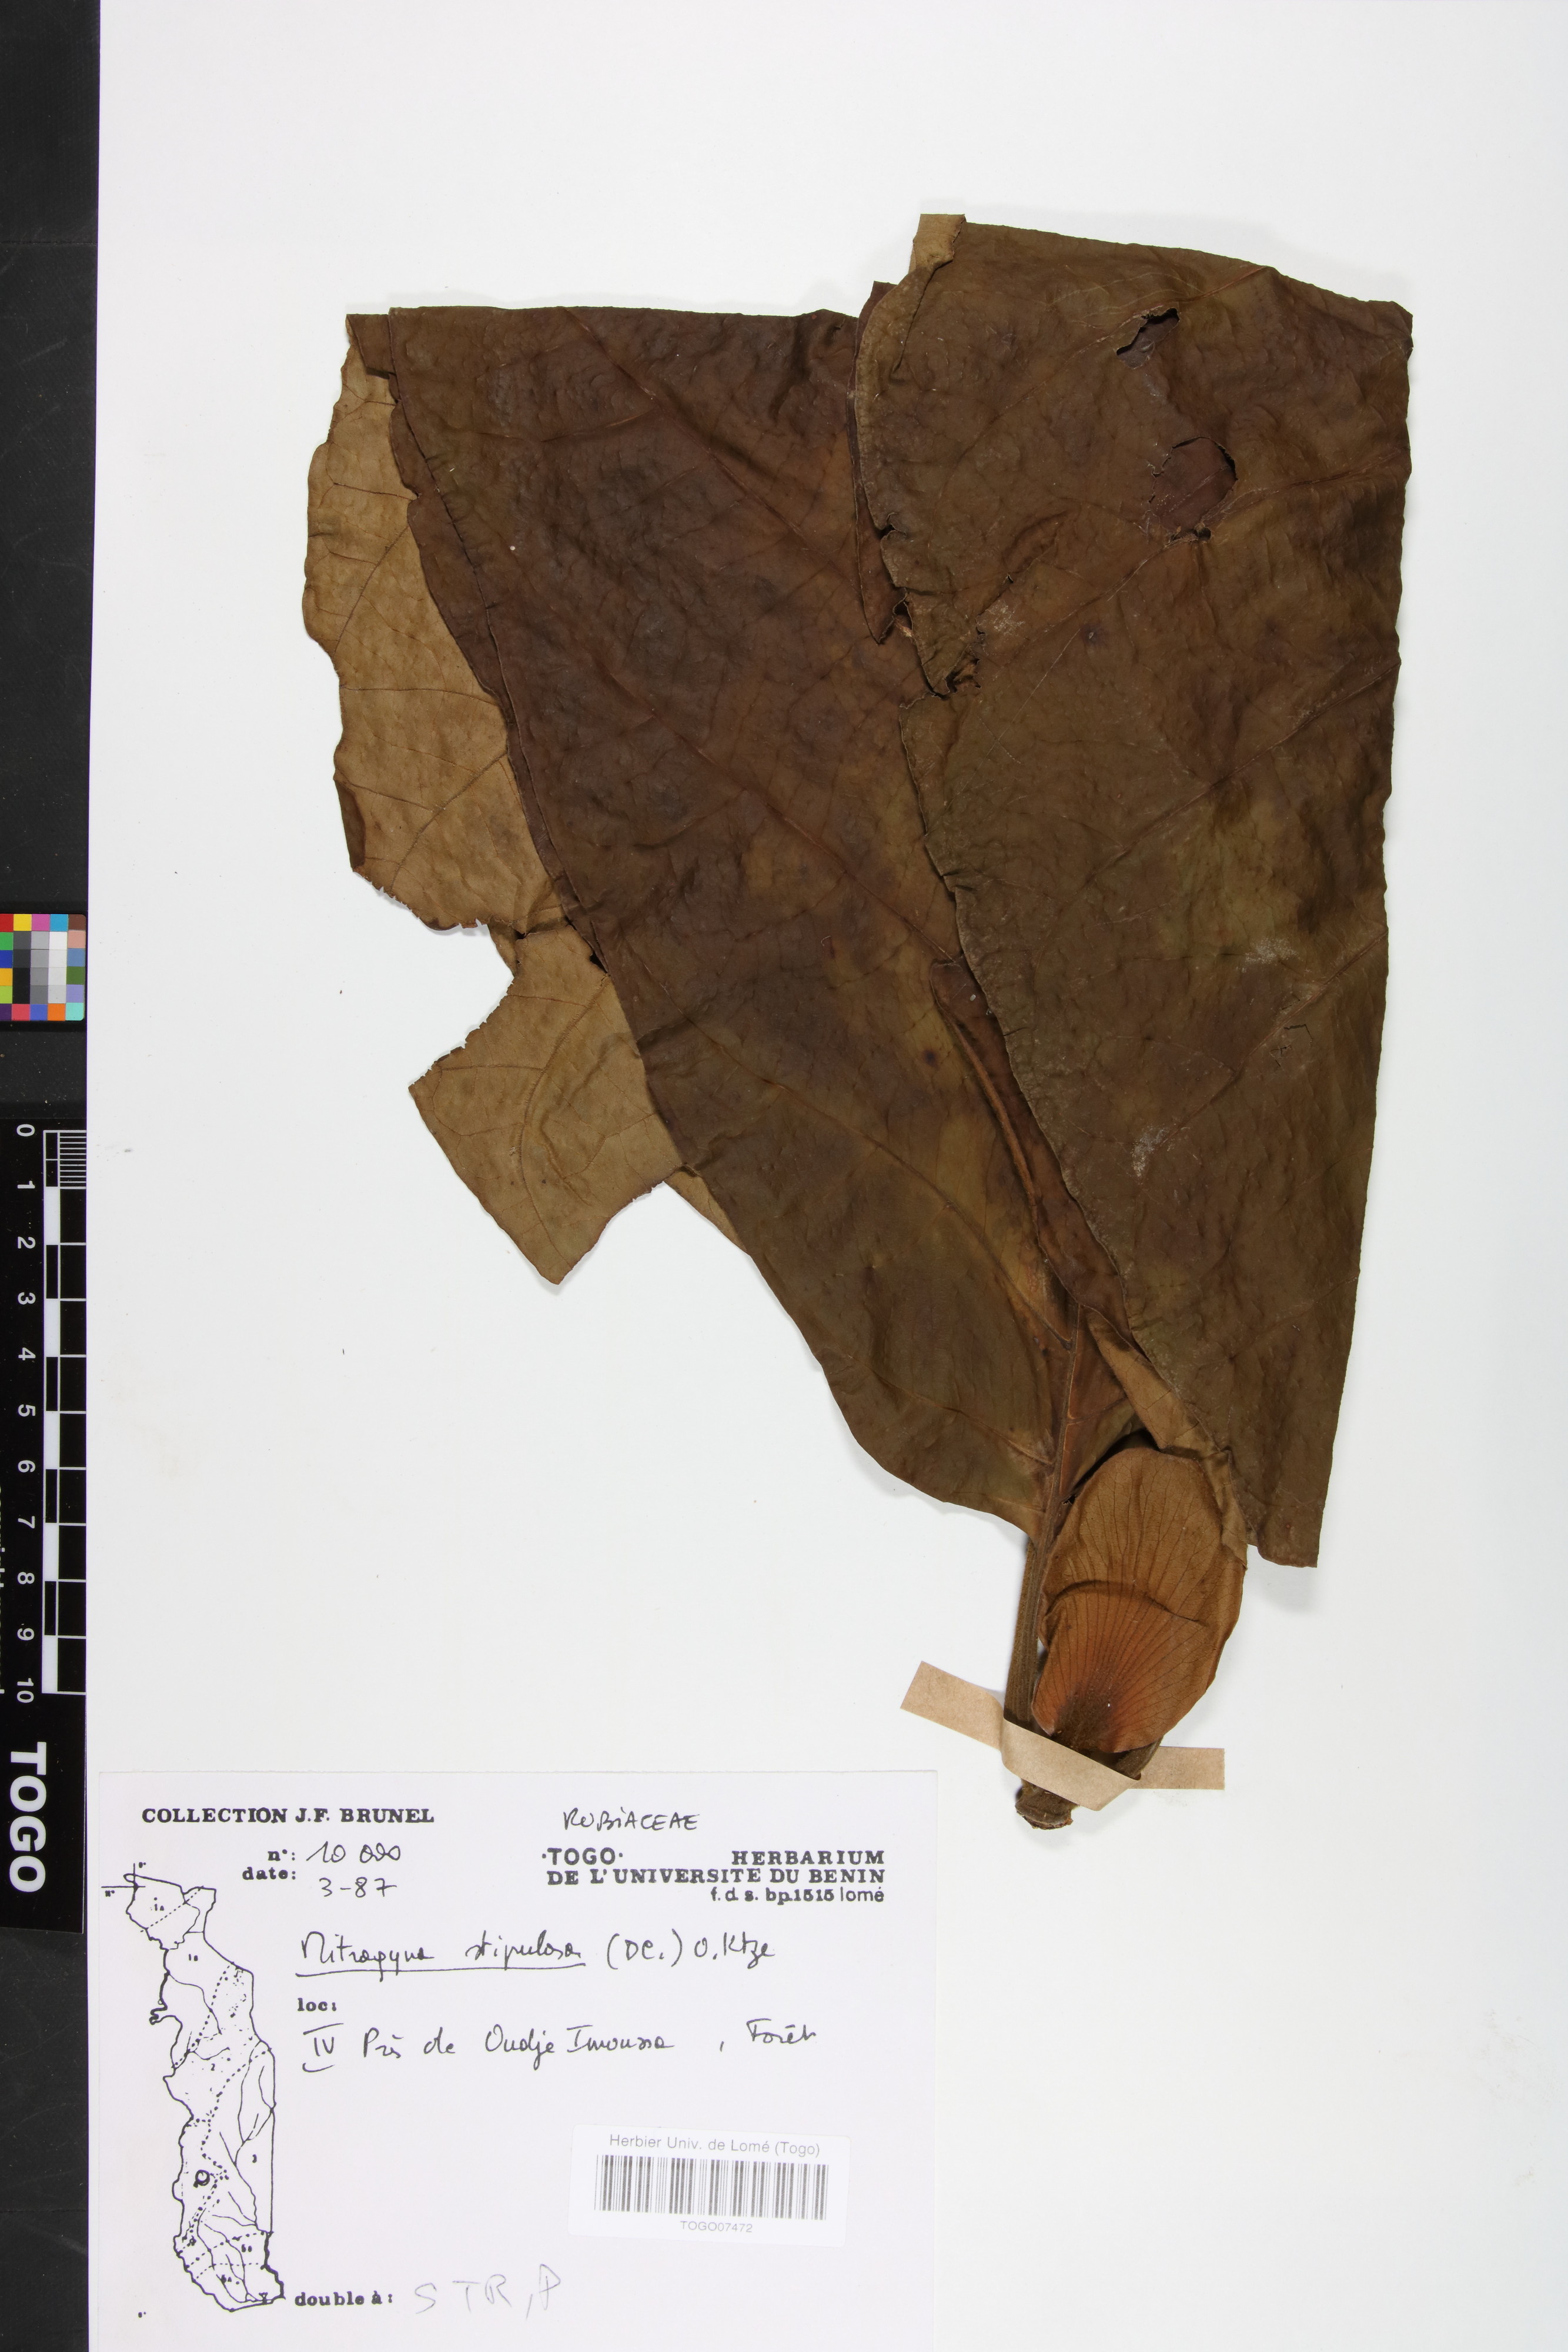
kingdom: Plantae
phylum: Tracheophyta
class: Magnoliopsida
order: Gentianales
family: Rubiaceae
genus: Mitragyna
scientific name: Mitragyna stipulosa
